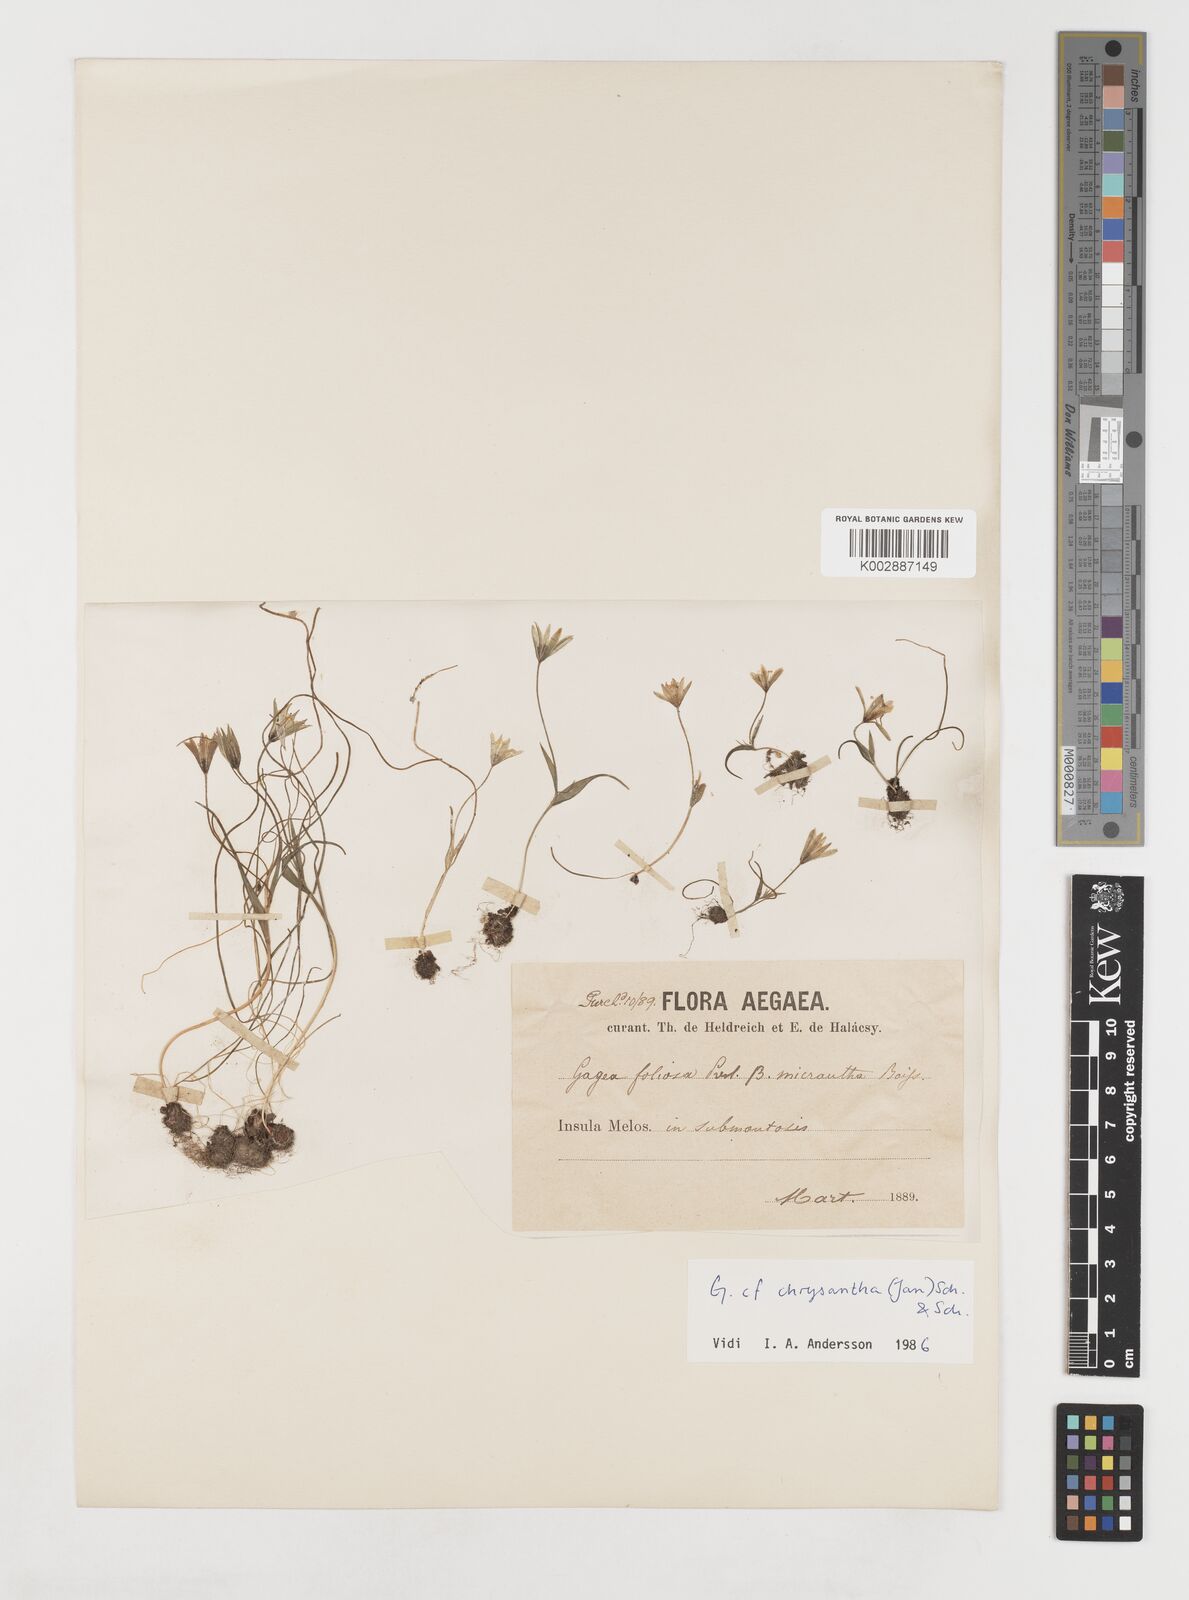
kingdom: Plantae
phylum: Tracheophyta
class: Liliopsida
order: Liliales
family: Liliaceae
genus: Gagea
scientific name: Gagea peduncularis
